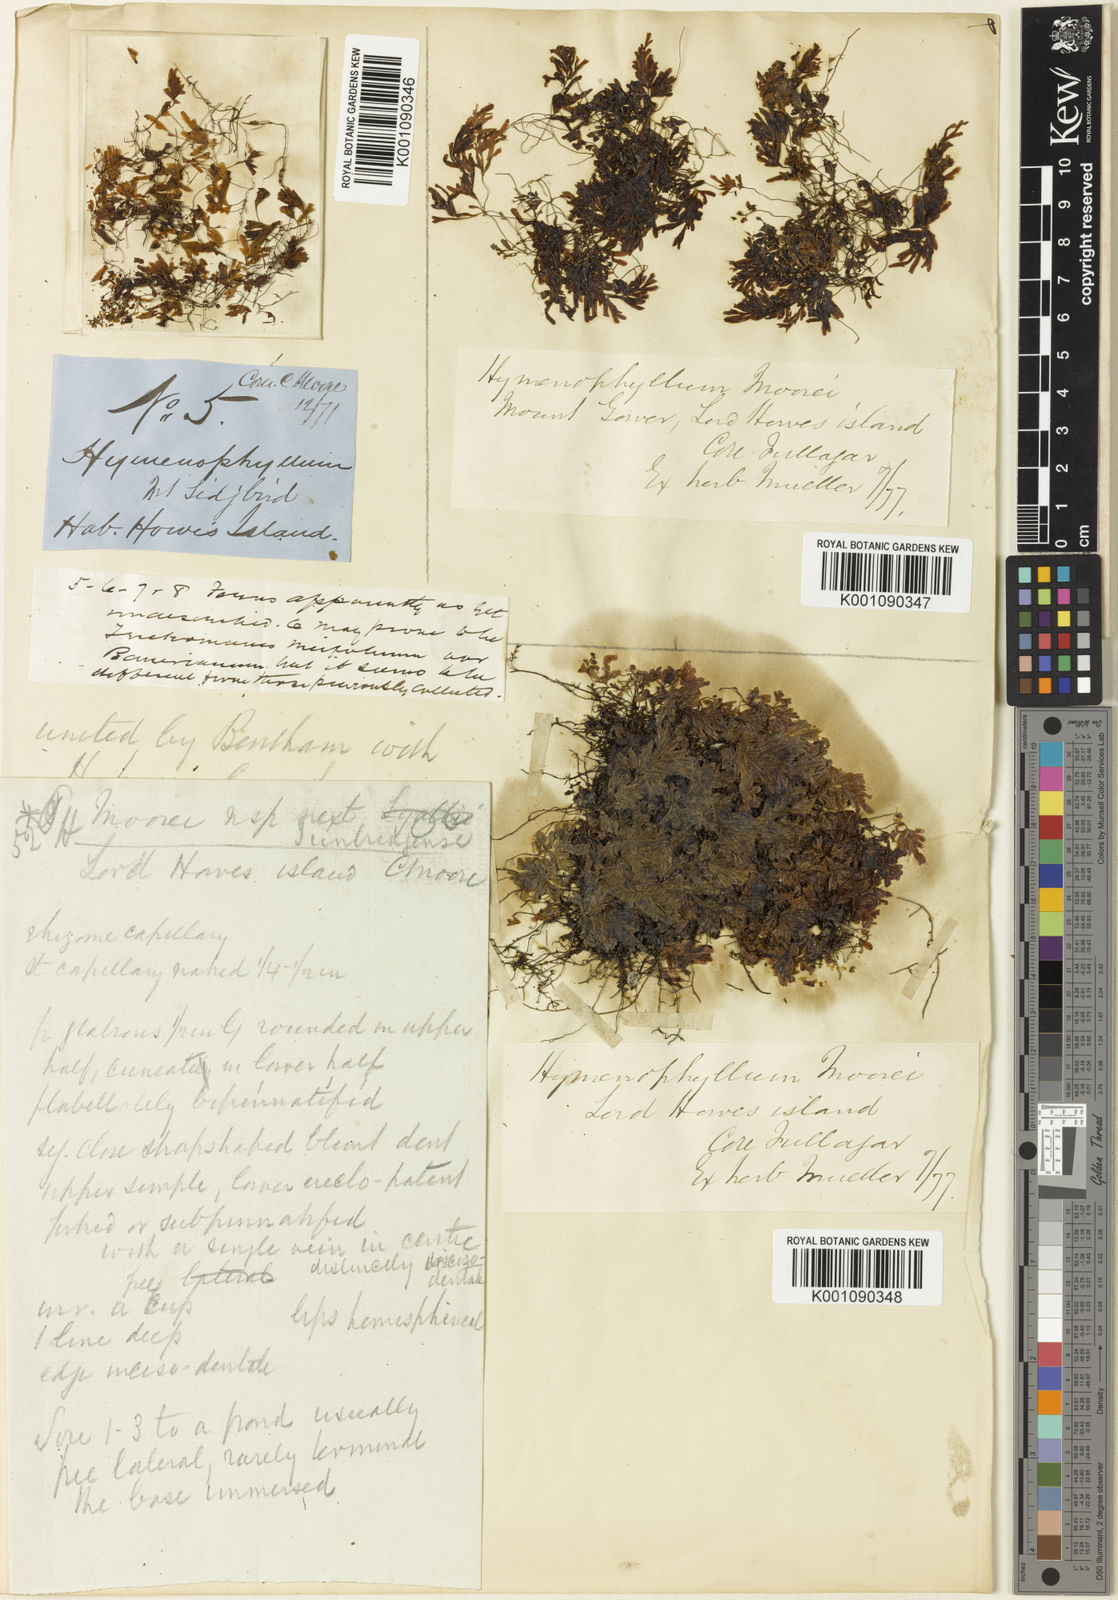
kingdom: Plantae
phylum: Tracheophyta
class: Polypodiopsida
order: Hymenophyllales
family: Hymenophyllaceae
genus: Hymenophyllum
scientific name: Hymenophyllum pumilum
